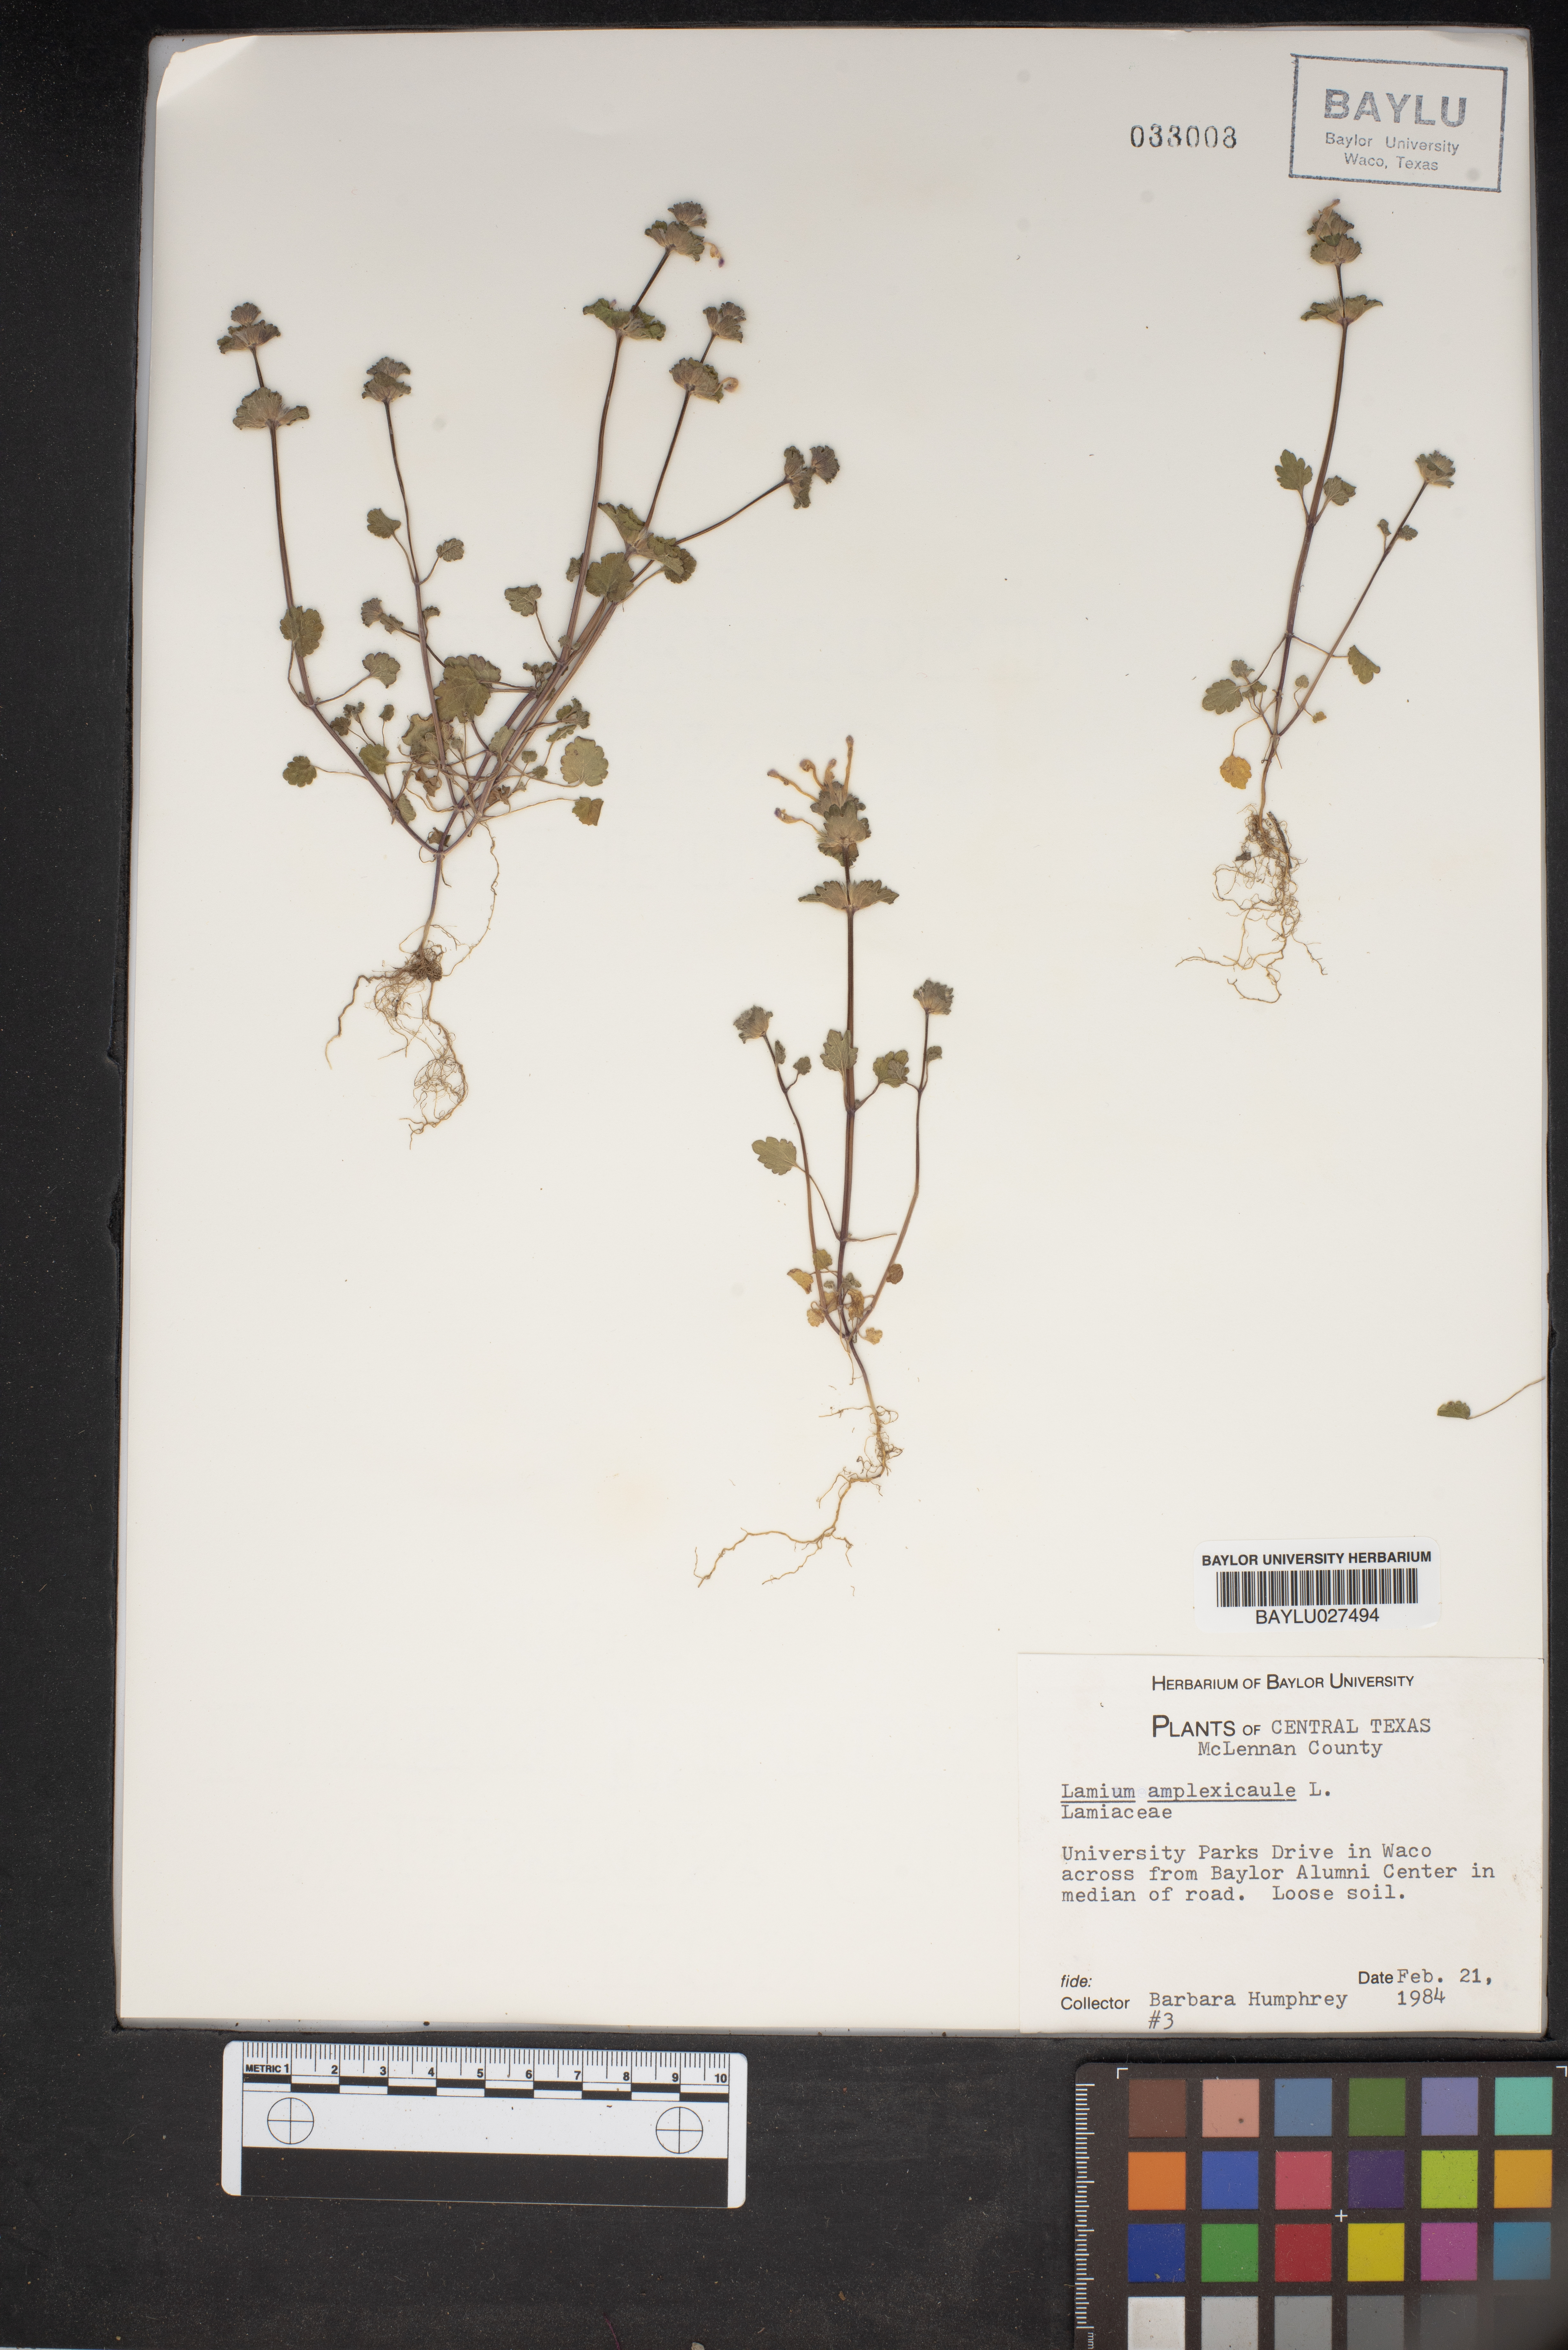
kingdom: Plantae
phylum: Tracheophyta
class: Magnoliopsida
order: Lamiales
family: Lamiaceae
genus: Lamium
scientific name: Lamium amplexicaule
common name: Henbit dead-nettle
